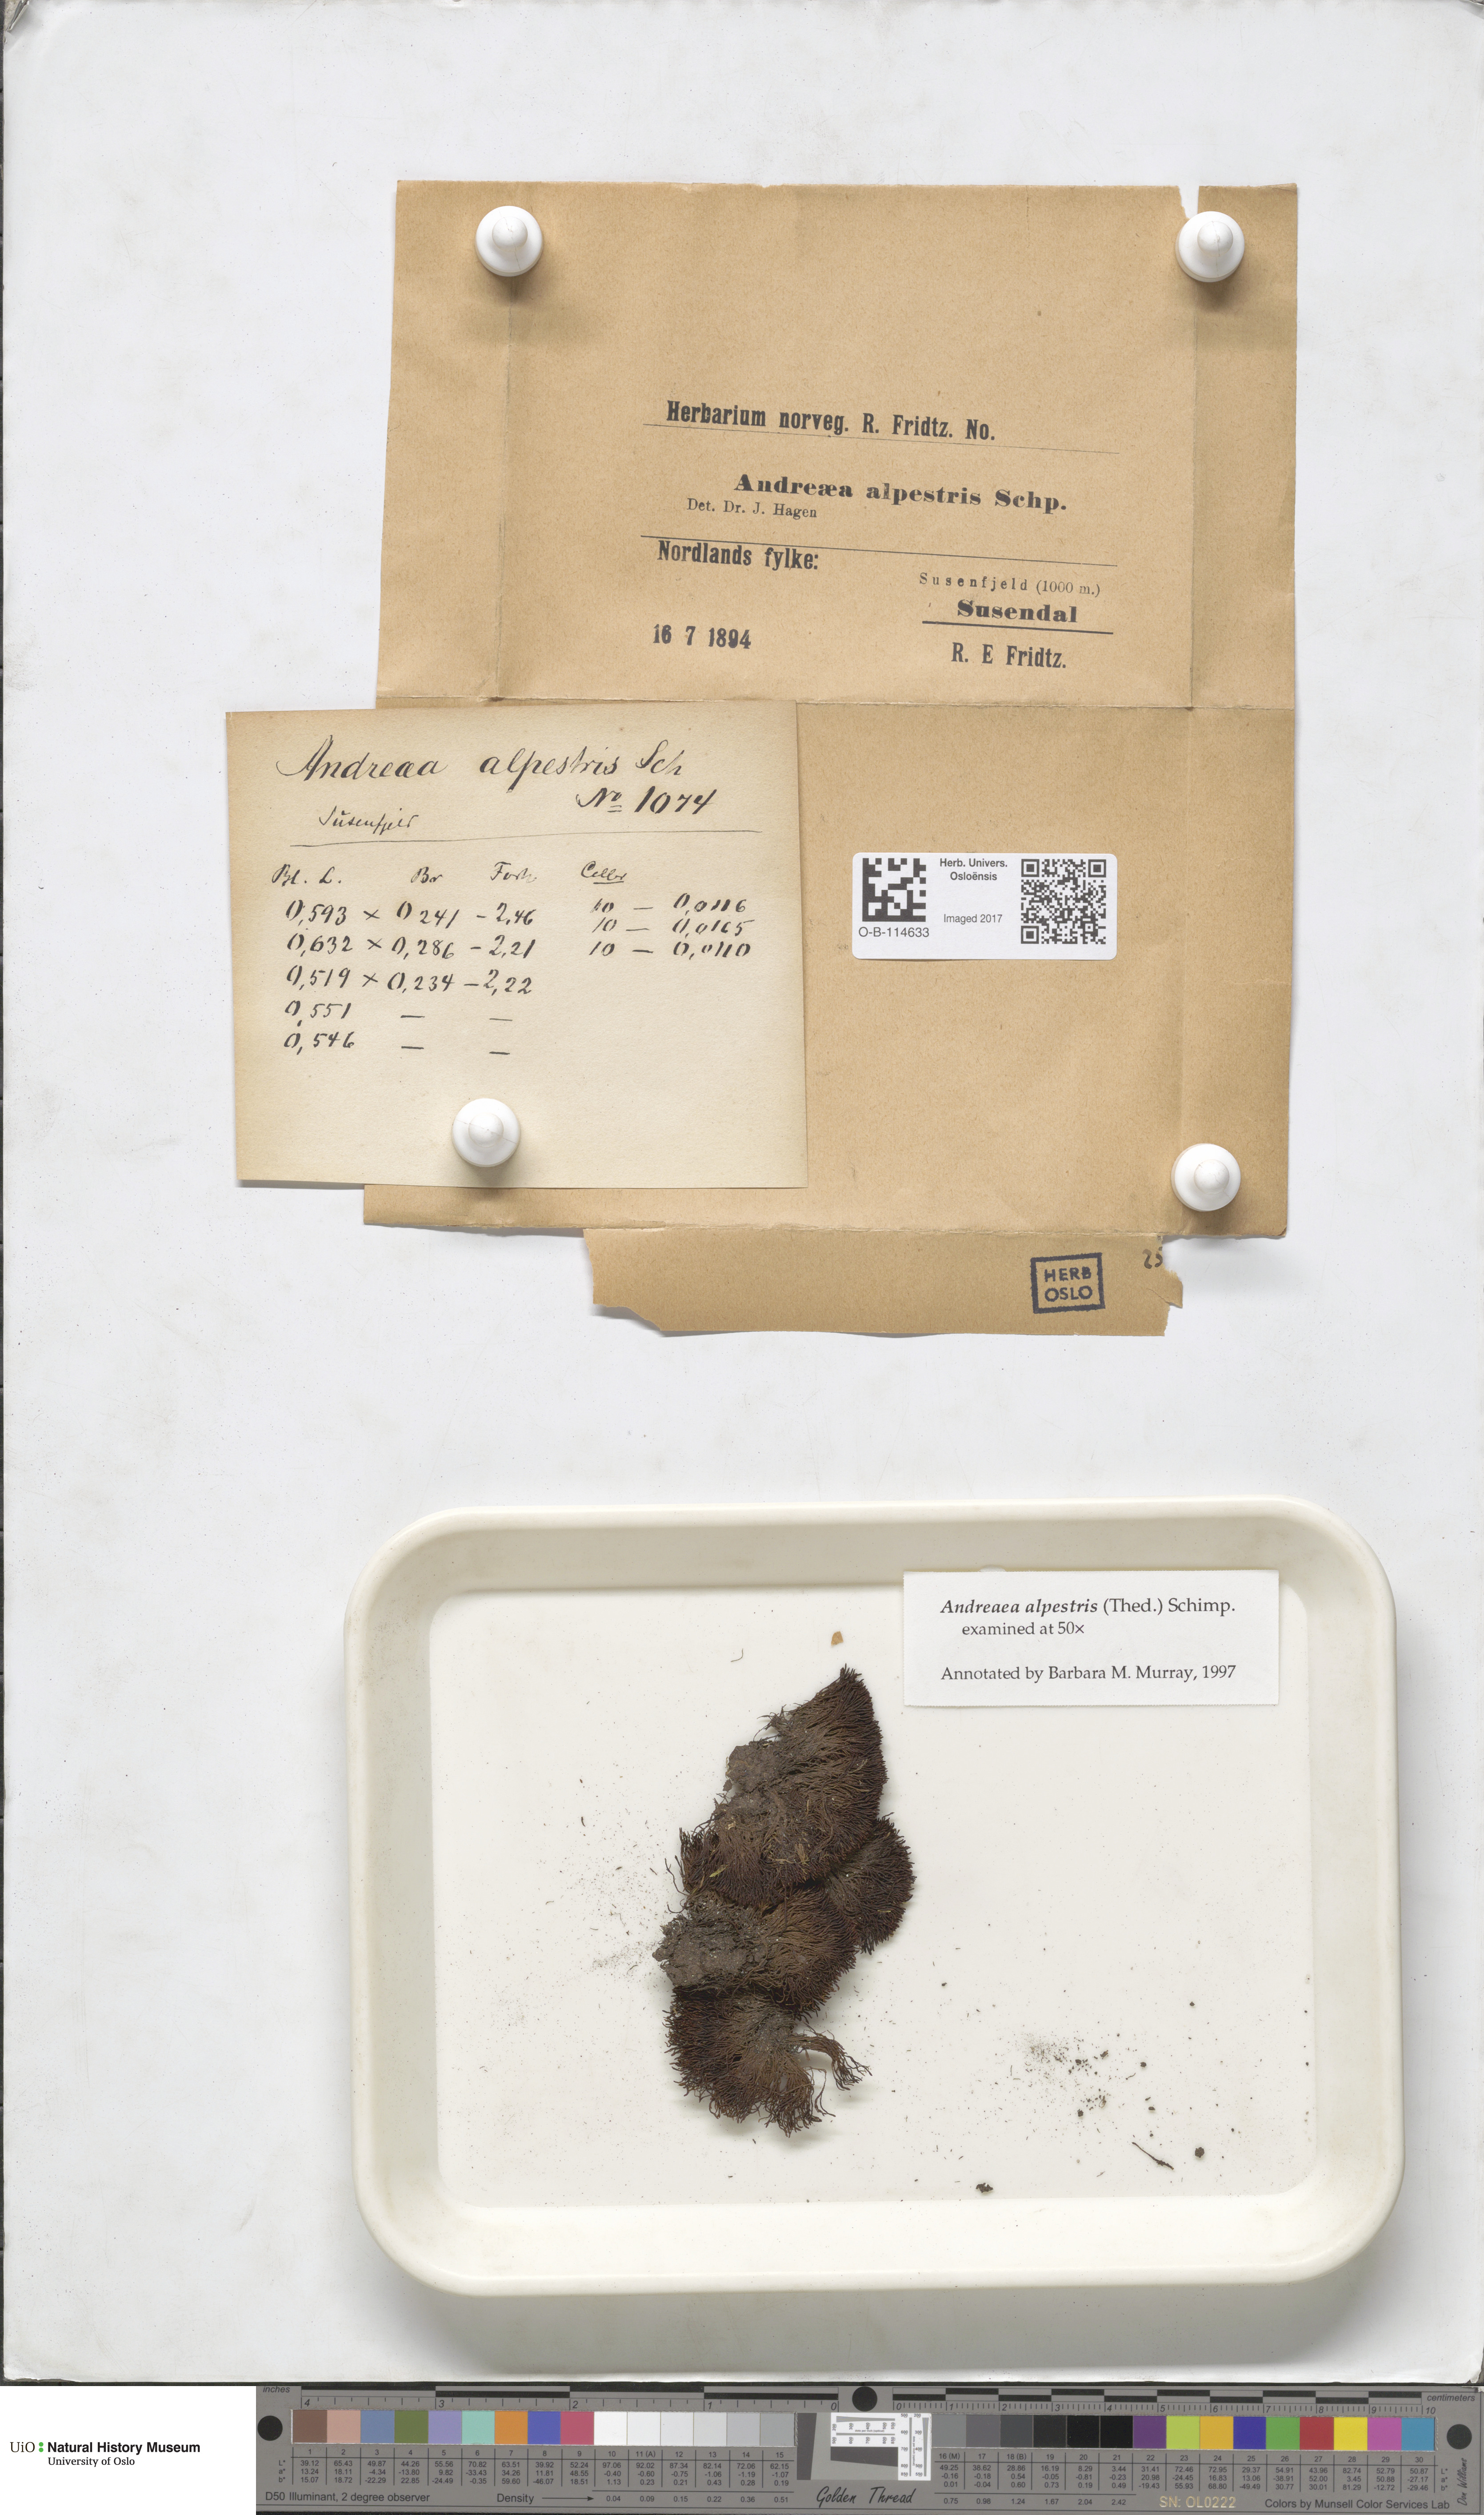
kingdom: Plantae
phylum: Bryophyta
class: Andreaeopsida
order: Andreaeales
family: Andreaeaceae
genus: Andreaea
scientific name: Andreaea alpestris
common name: Slender rock-moss
